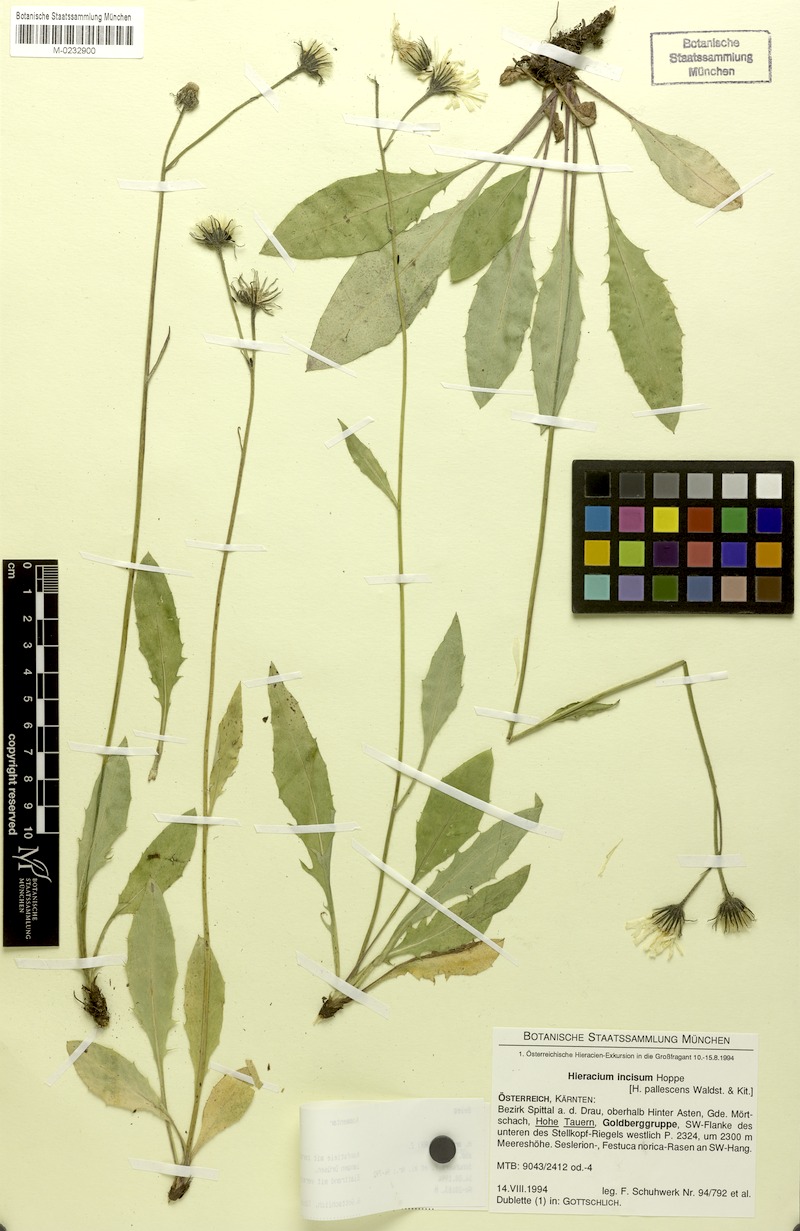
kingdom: Plantae
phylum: Tracheophyta
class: Magnoliopsida
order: Asterales
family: Asteraceae
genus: Hieracium
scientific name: Hieracium arolae
